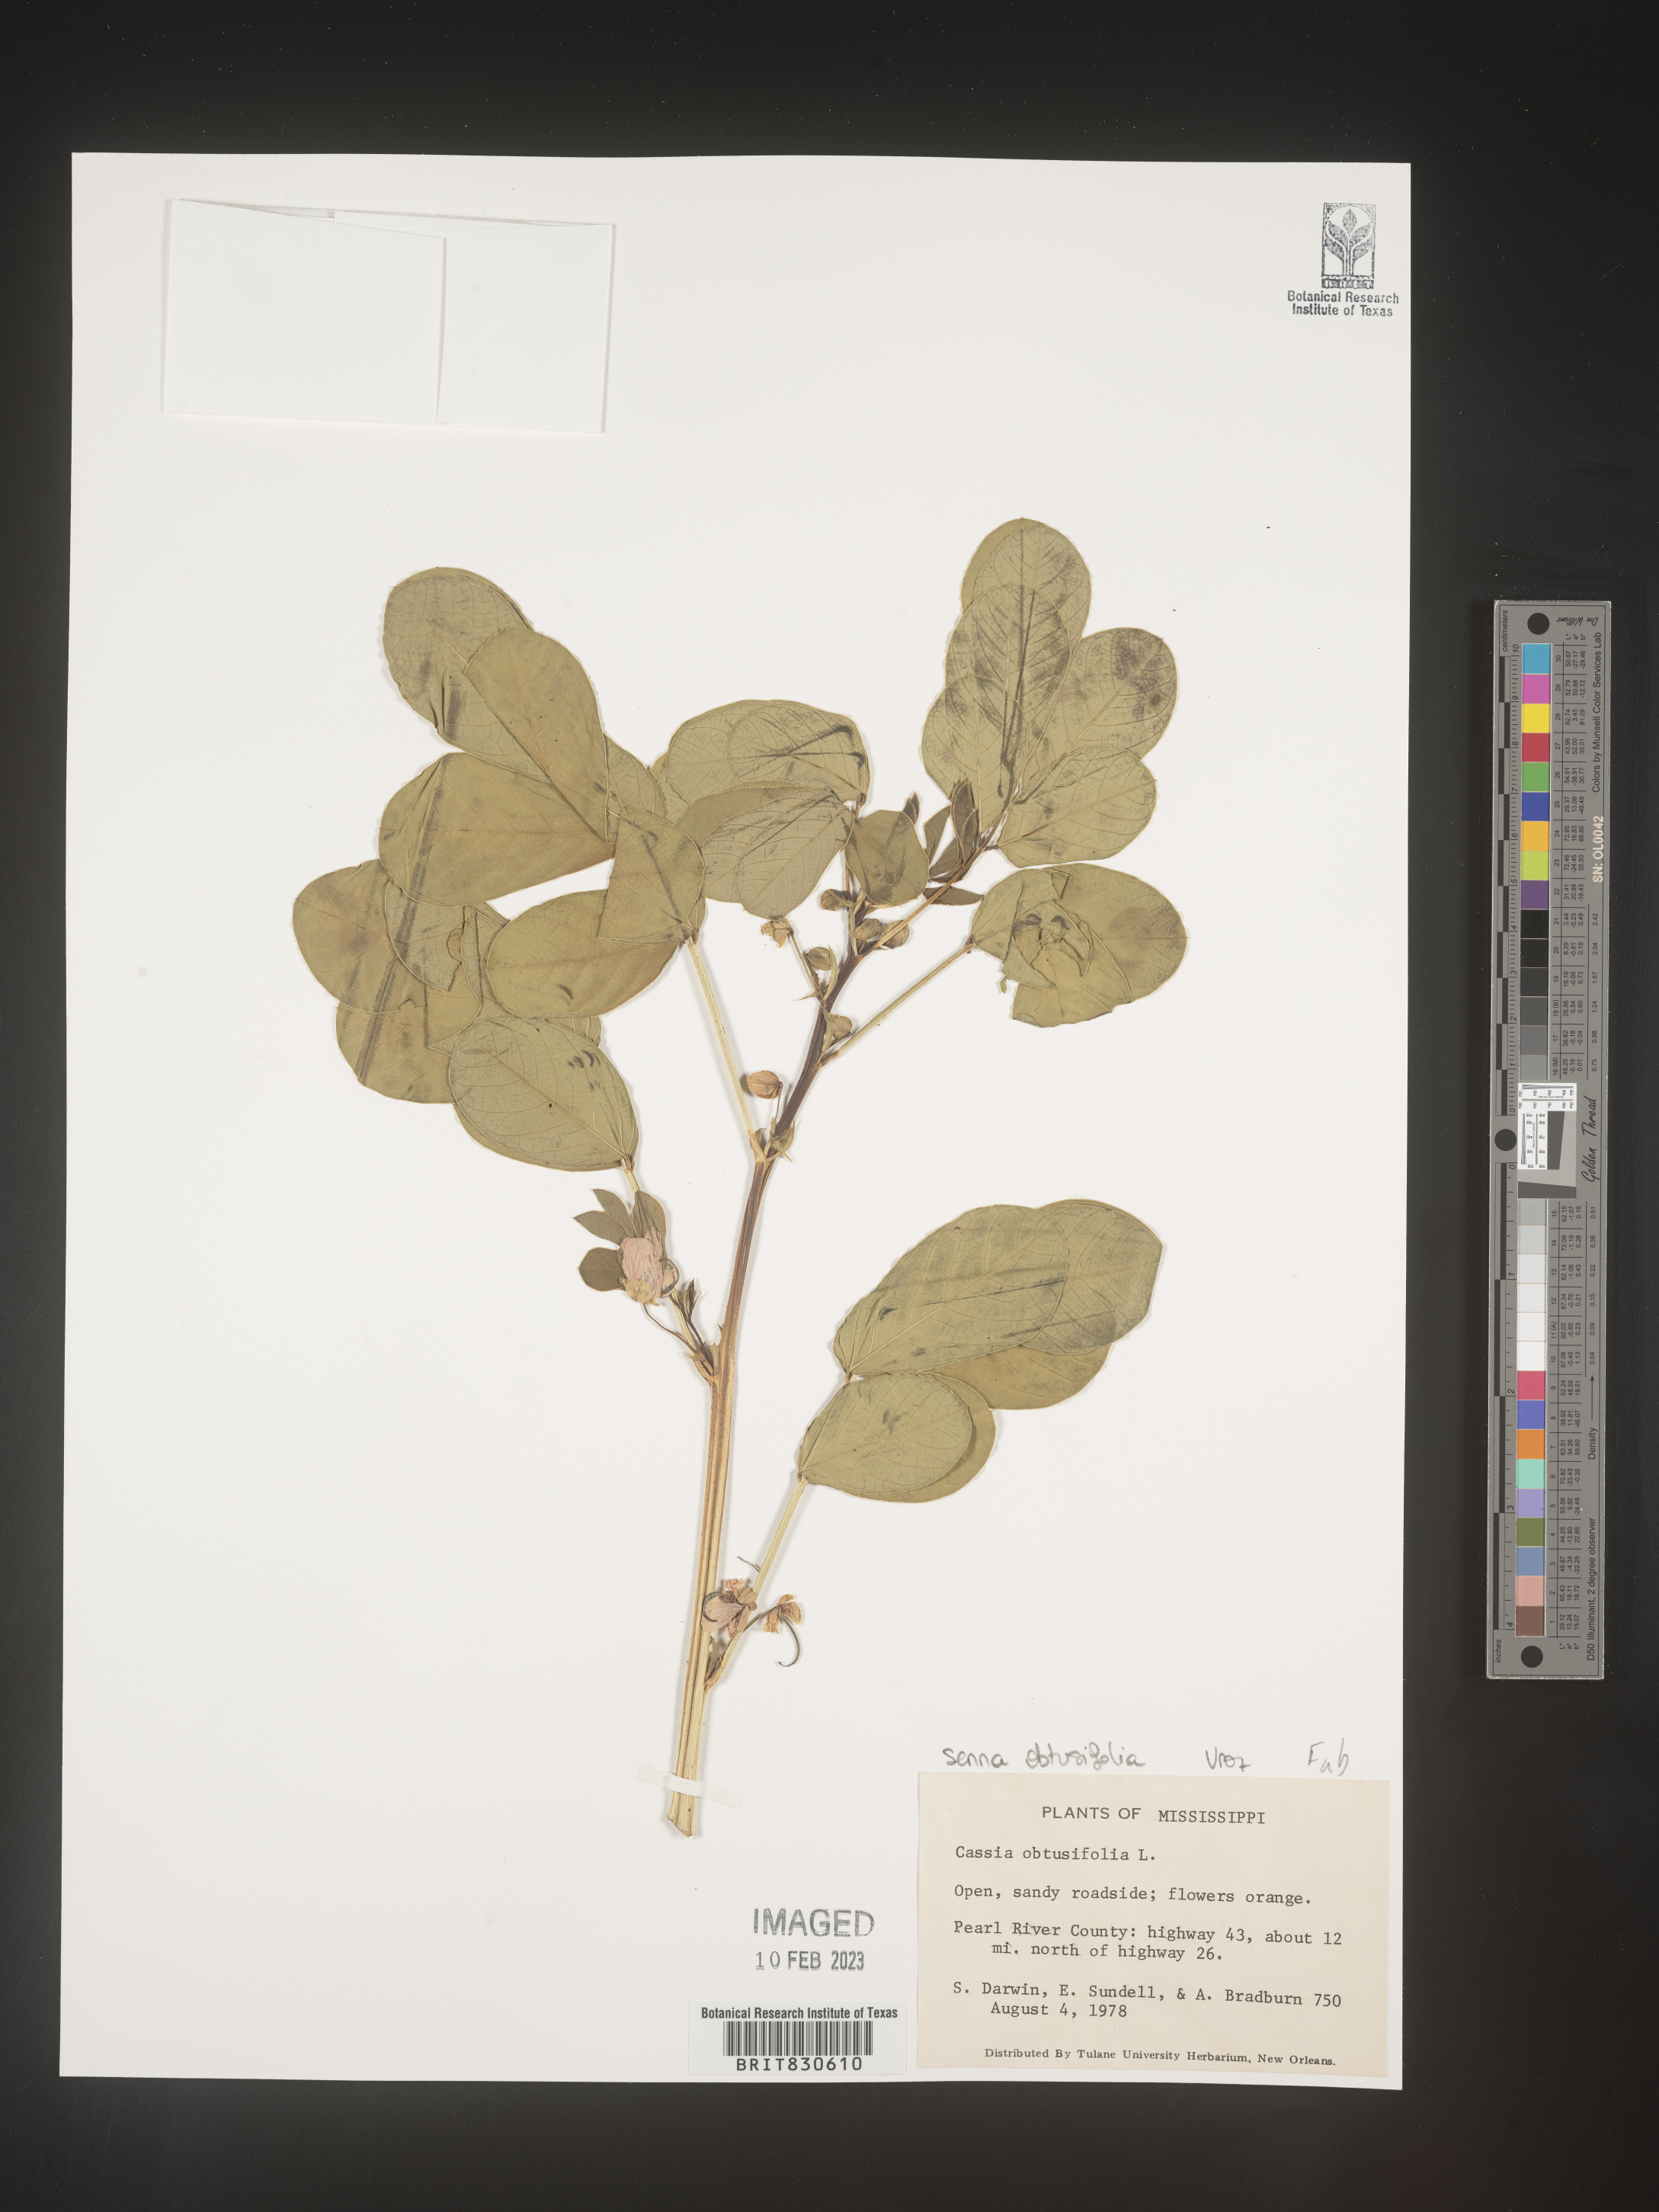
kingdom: Plantae
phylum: Tracheophyta
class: Magnoliopsida
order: Fabales
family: Fabaceae
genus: Senna
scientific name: Senna obtusifolia
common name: Java-bean
